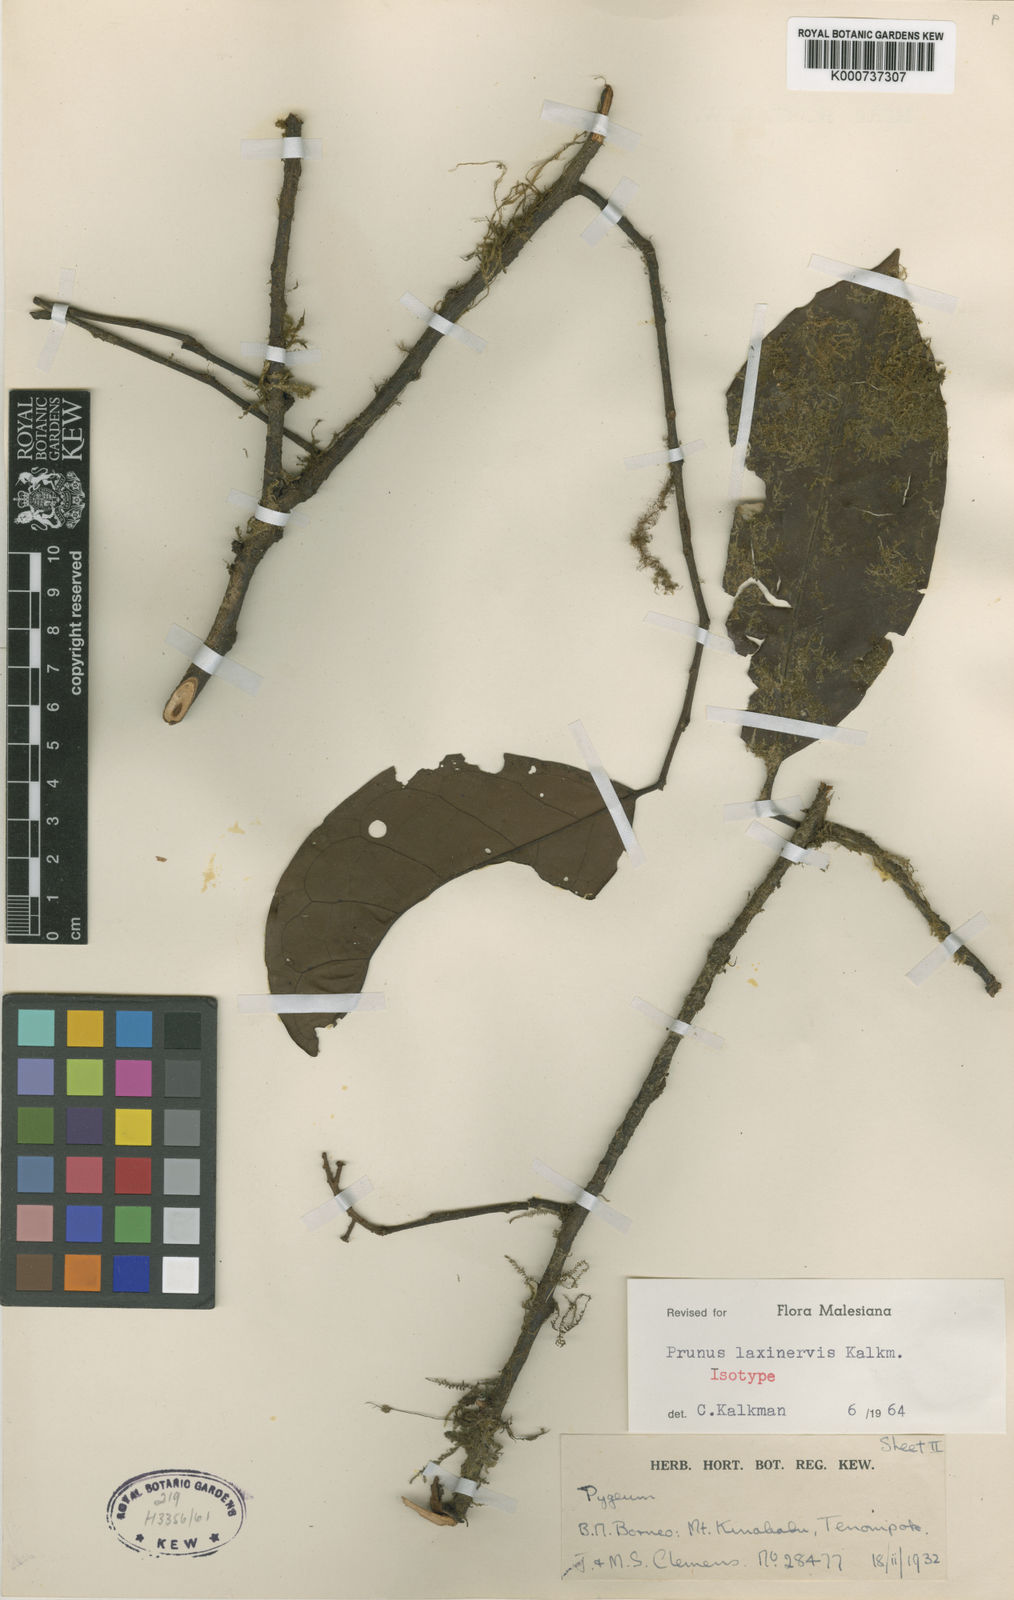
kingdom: Plantae
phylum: Tracheophyta
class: Magnoliopsida
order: Rosales
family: Rosaceae
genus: Prunus
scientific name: Prunus laxinervis
